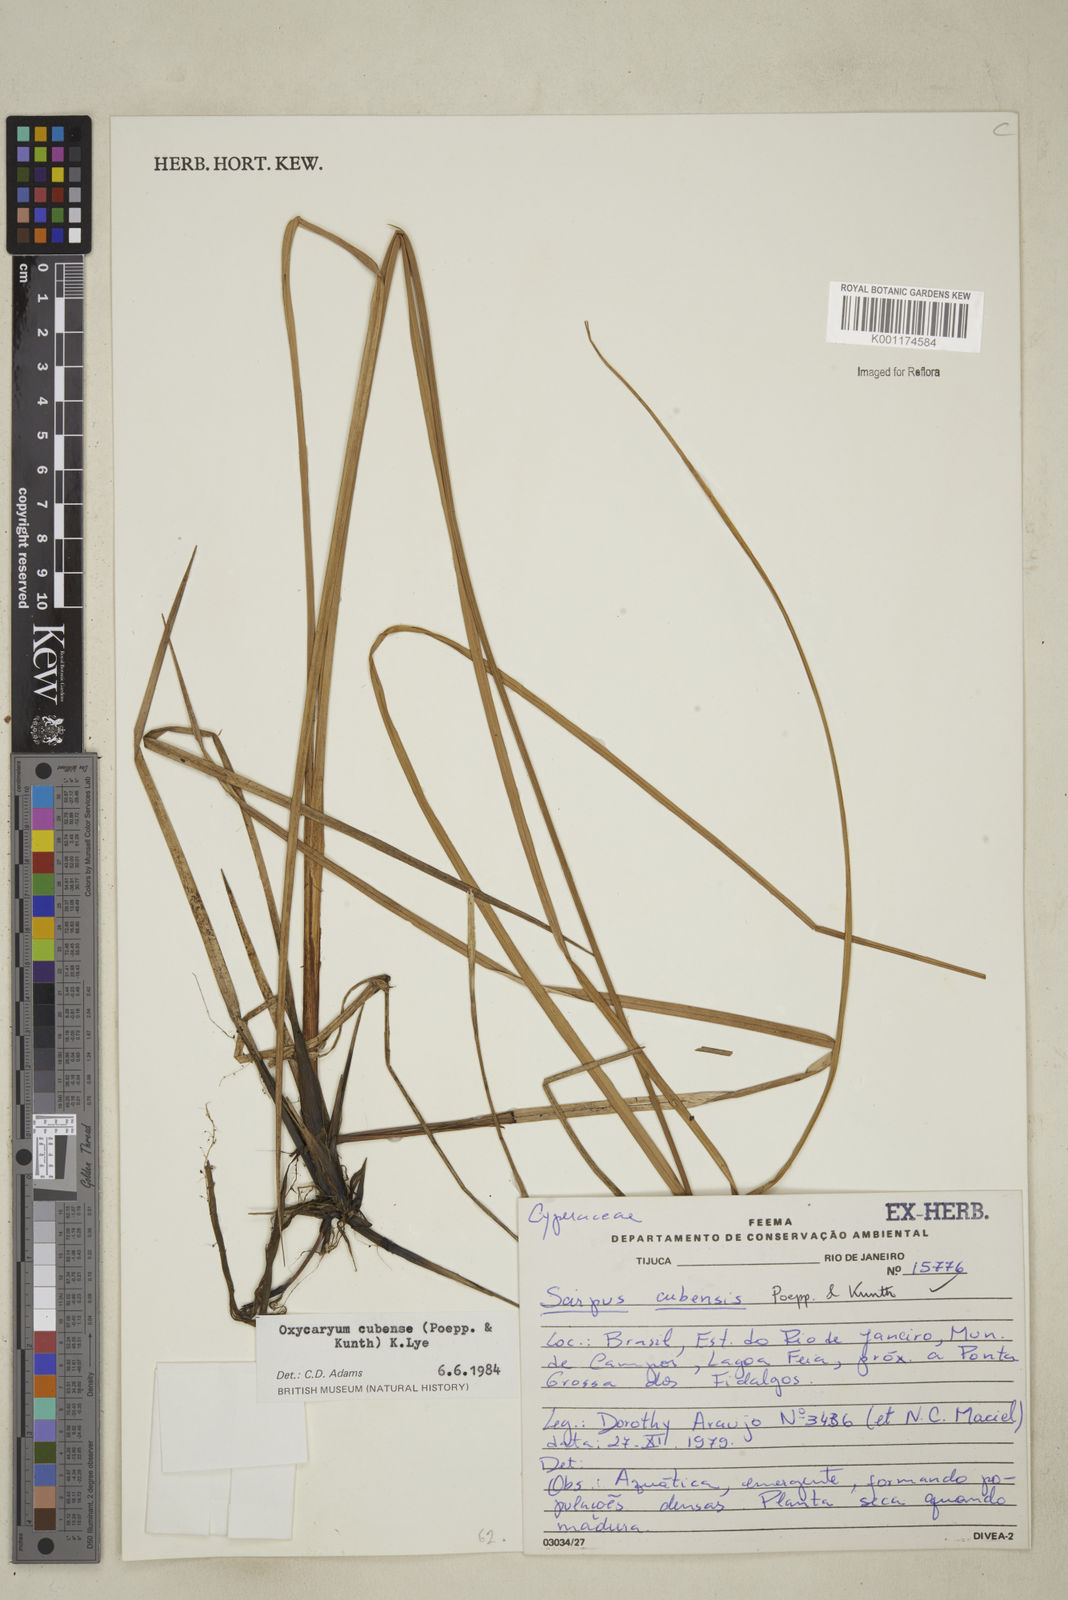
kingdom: Plantae
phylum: Tracheophyta
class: Liliopsida
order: Poales
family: Cyperaceae
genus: Cyperus
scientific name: Cyperus elegans
